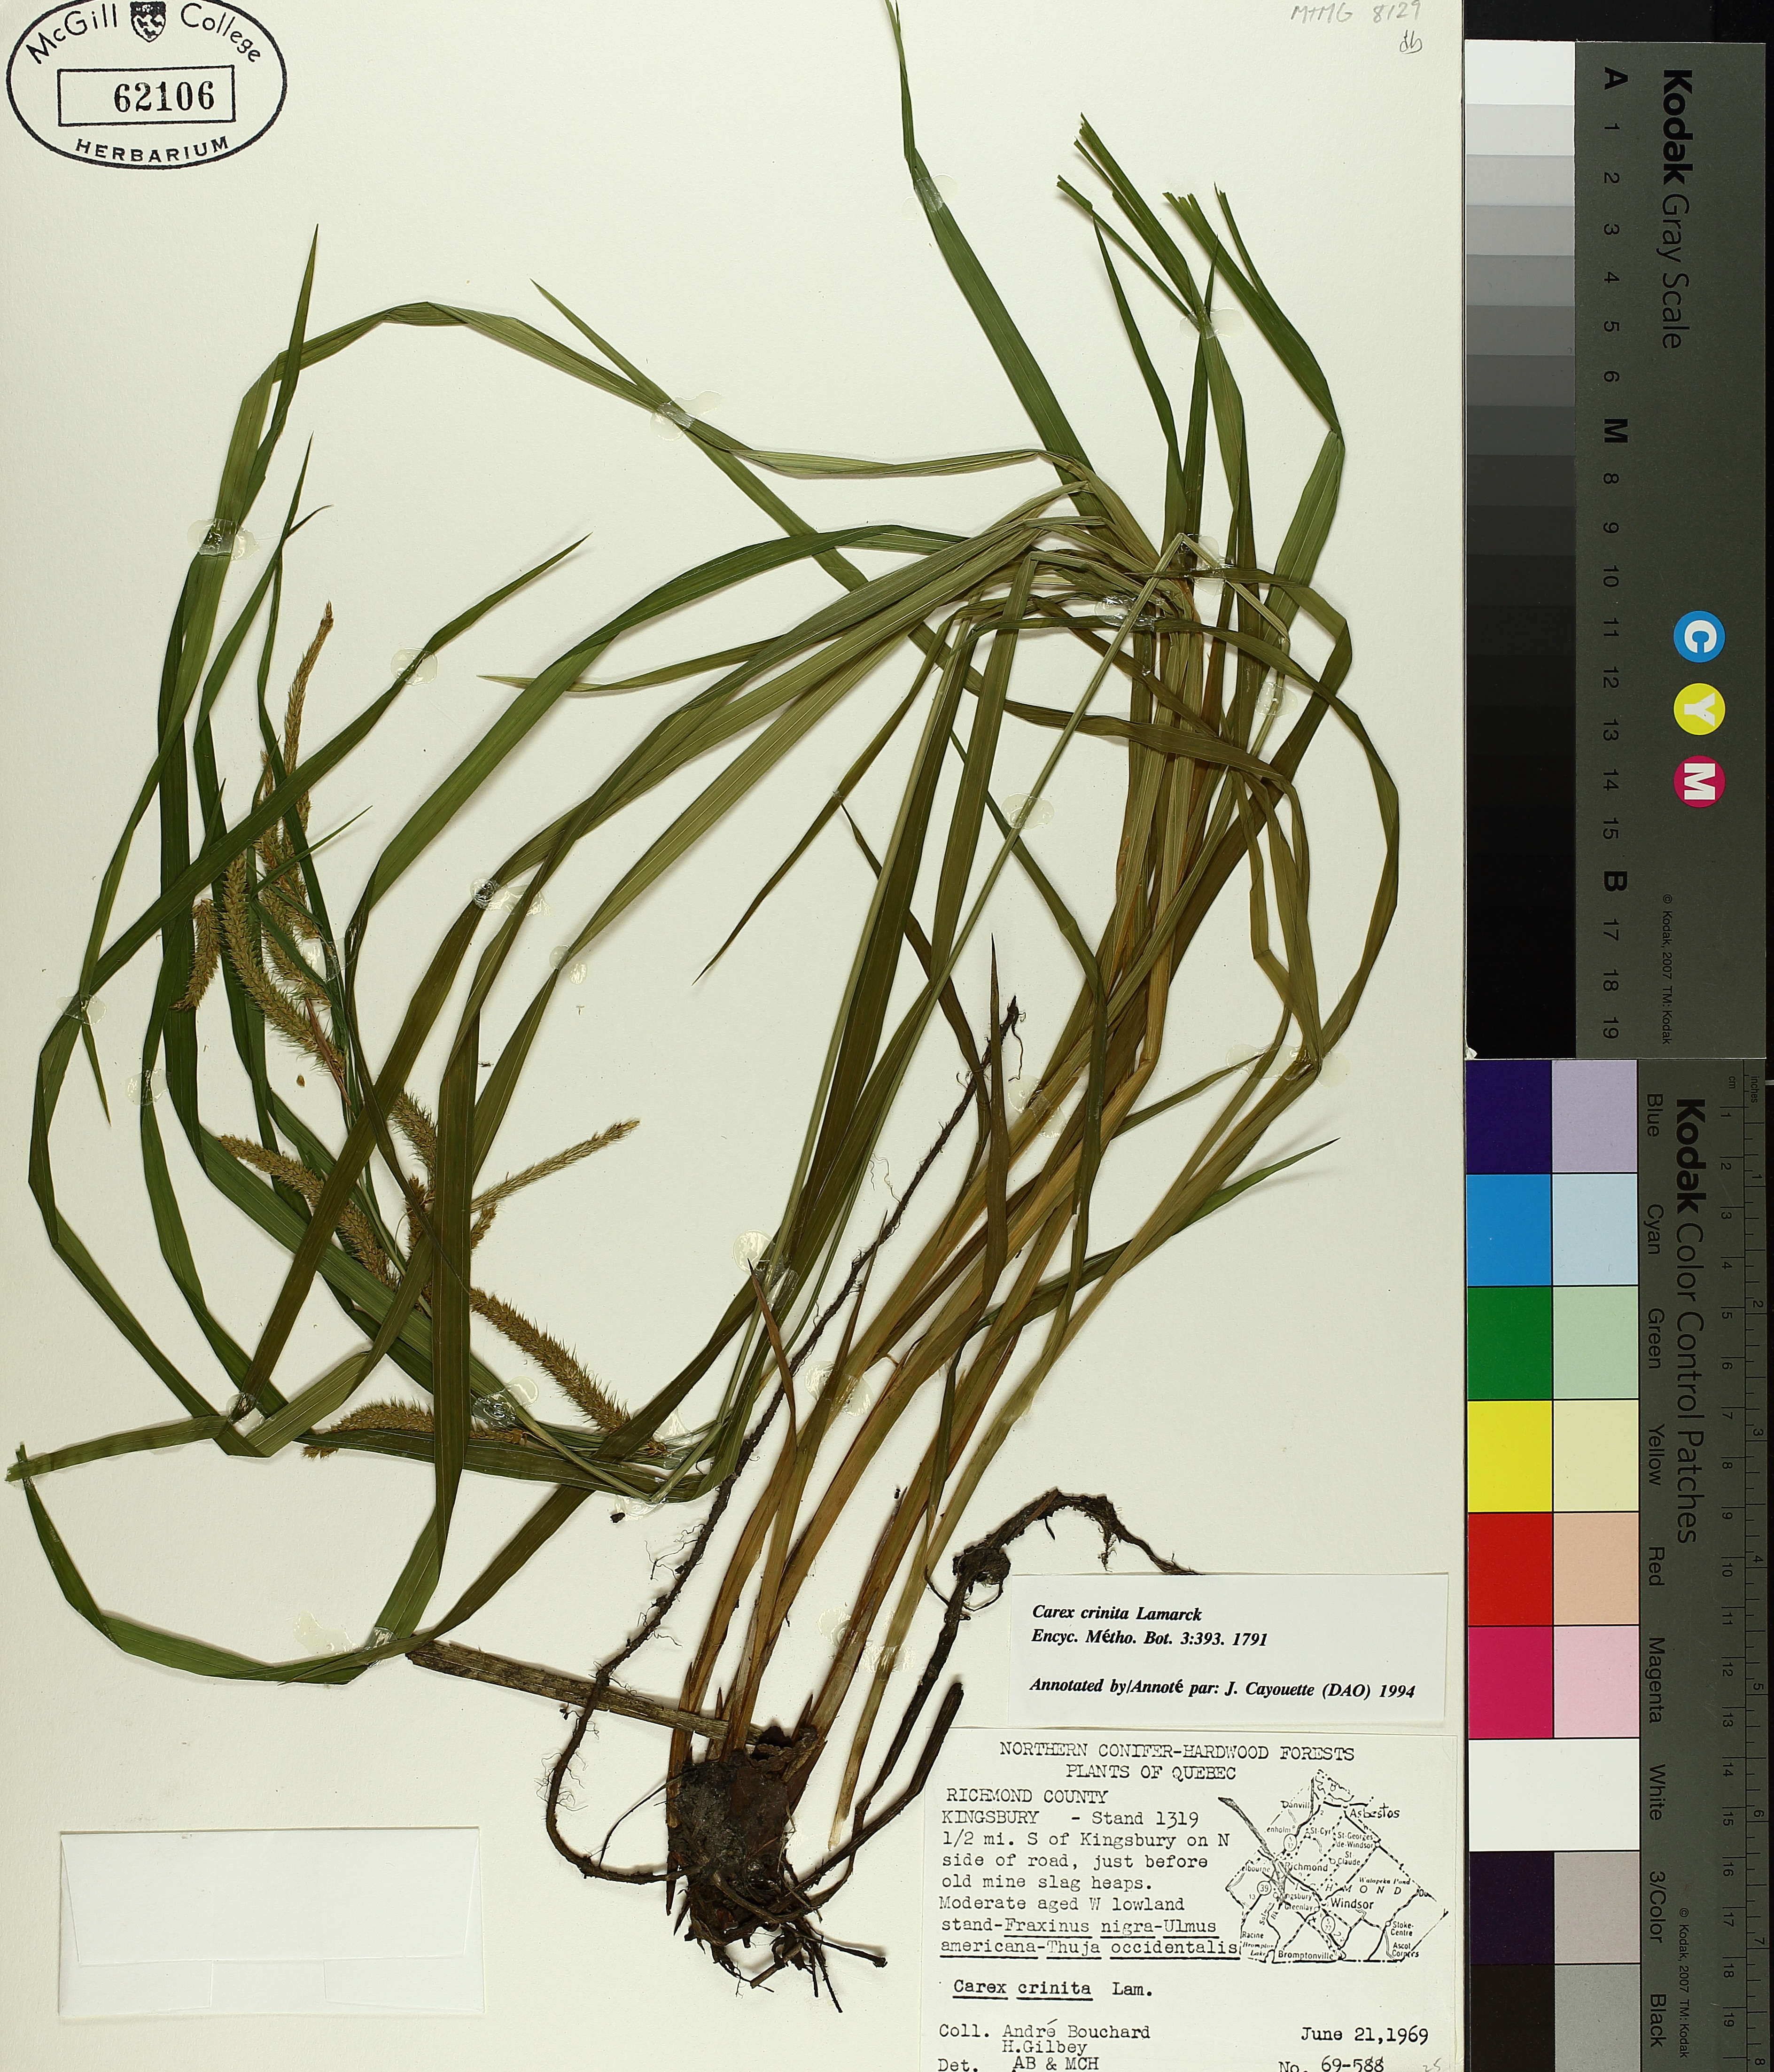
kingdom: Plantae
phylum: Tracheophyta
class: Liliopsida
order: Poales
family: Cyperaceae
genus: Carex
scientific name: Carex crinita
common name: Fringed sedge
